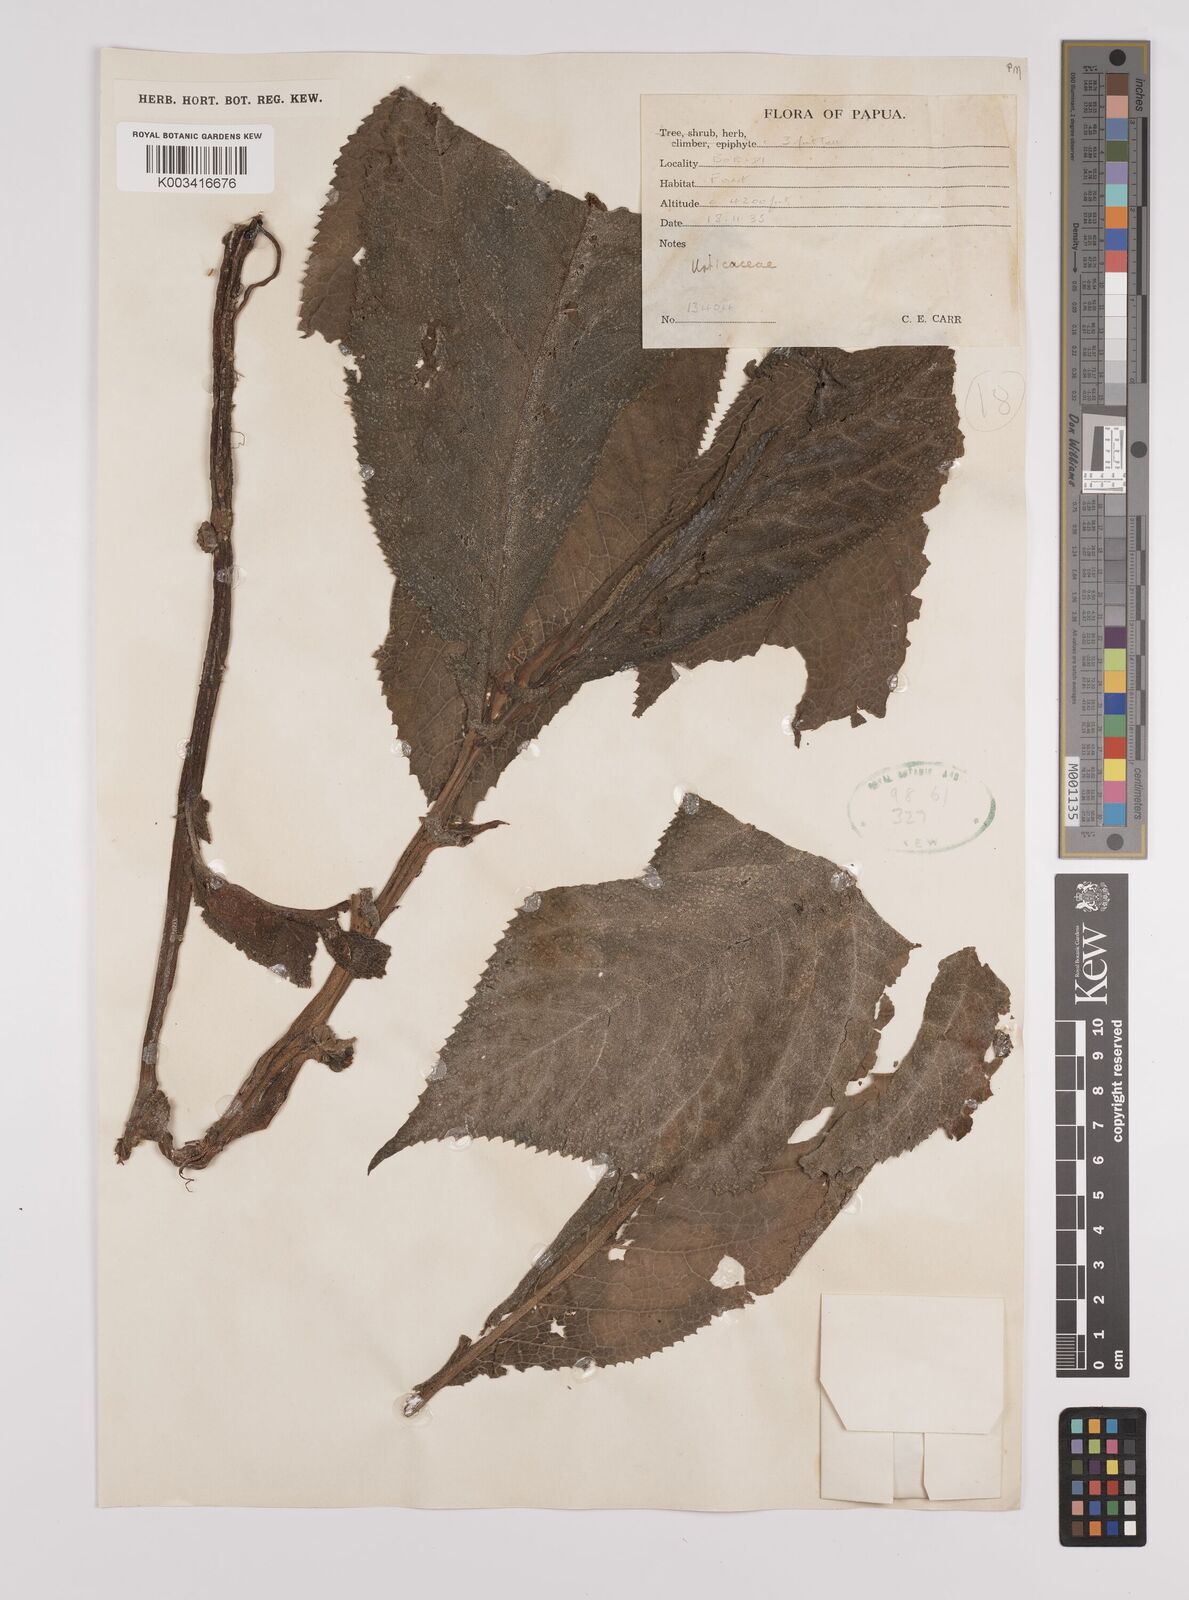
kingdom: Plantae
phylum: Tracheophyta
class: Magnoliopsida
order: Rosales
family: Urticaceae
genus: Elatostema
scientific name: Elatostema
